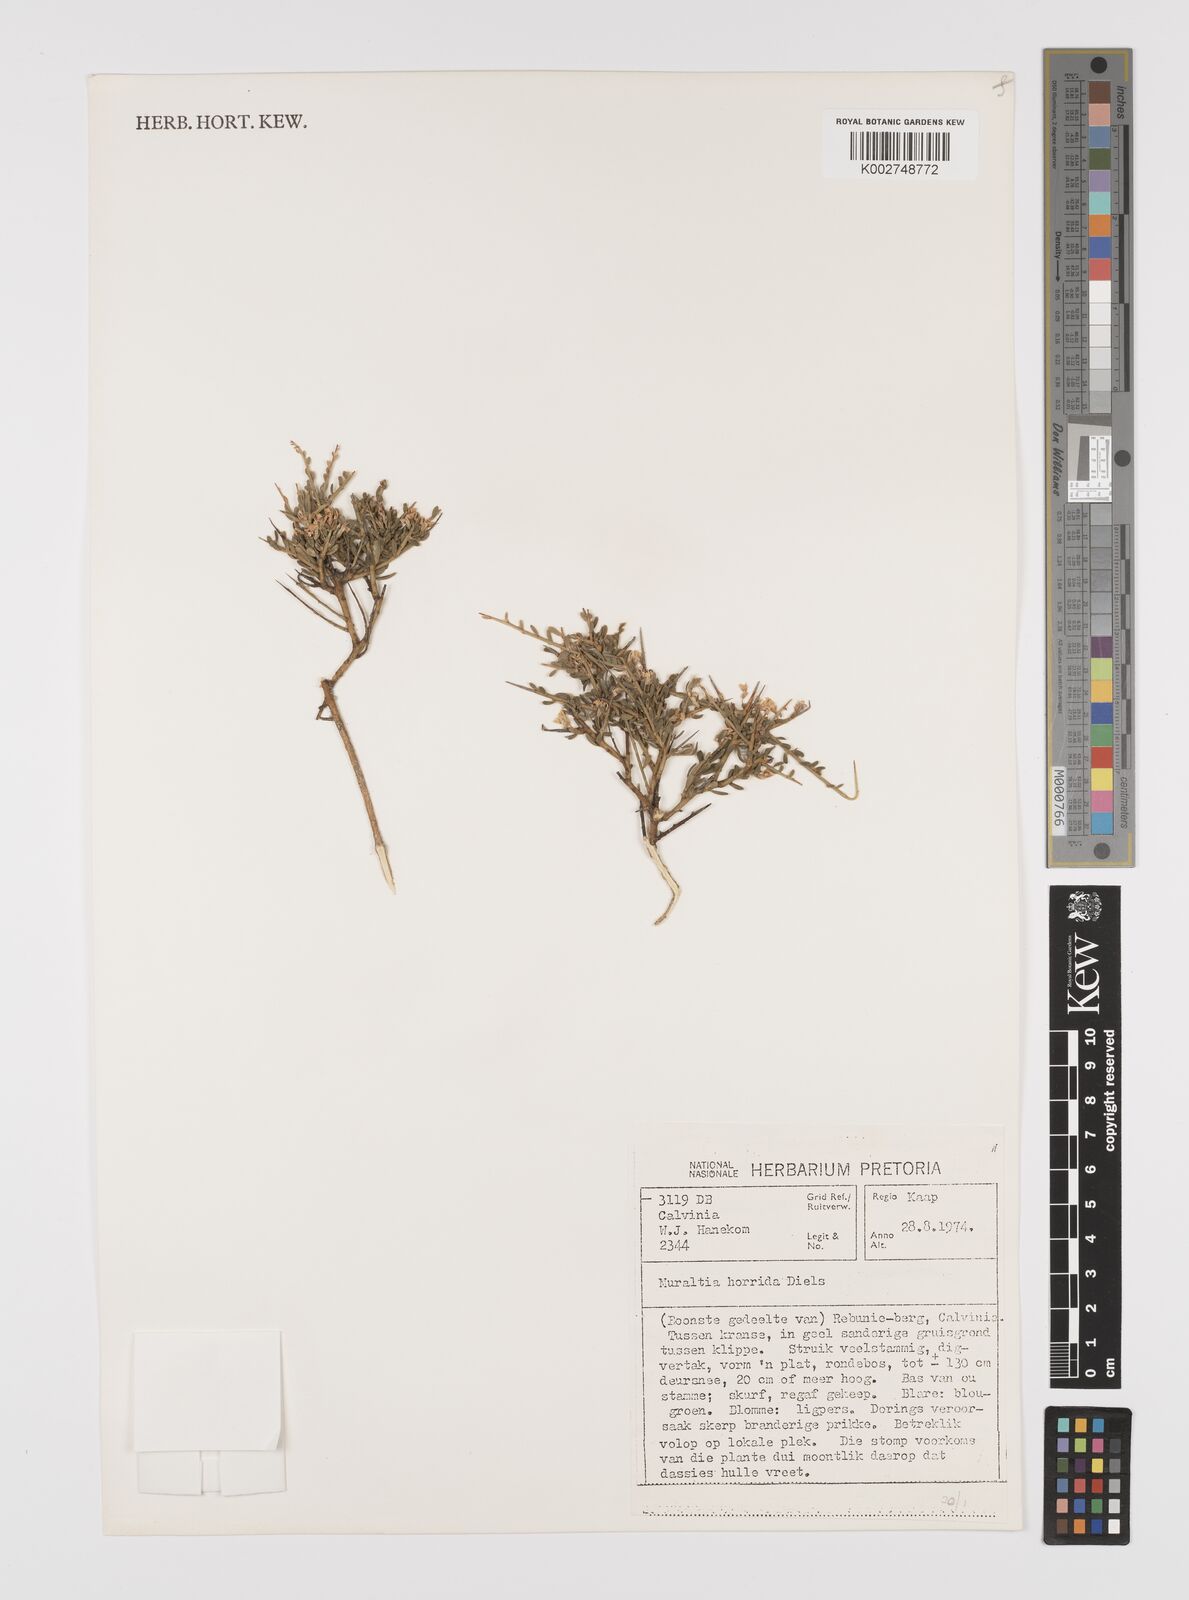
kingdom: Plantae
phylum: Tracheophyta
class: Magnoliopsida
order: Fabales
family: Polygalaceae
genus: Muraltia
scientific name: Muraltia horrida
